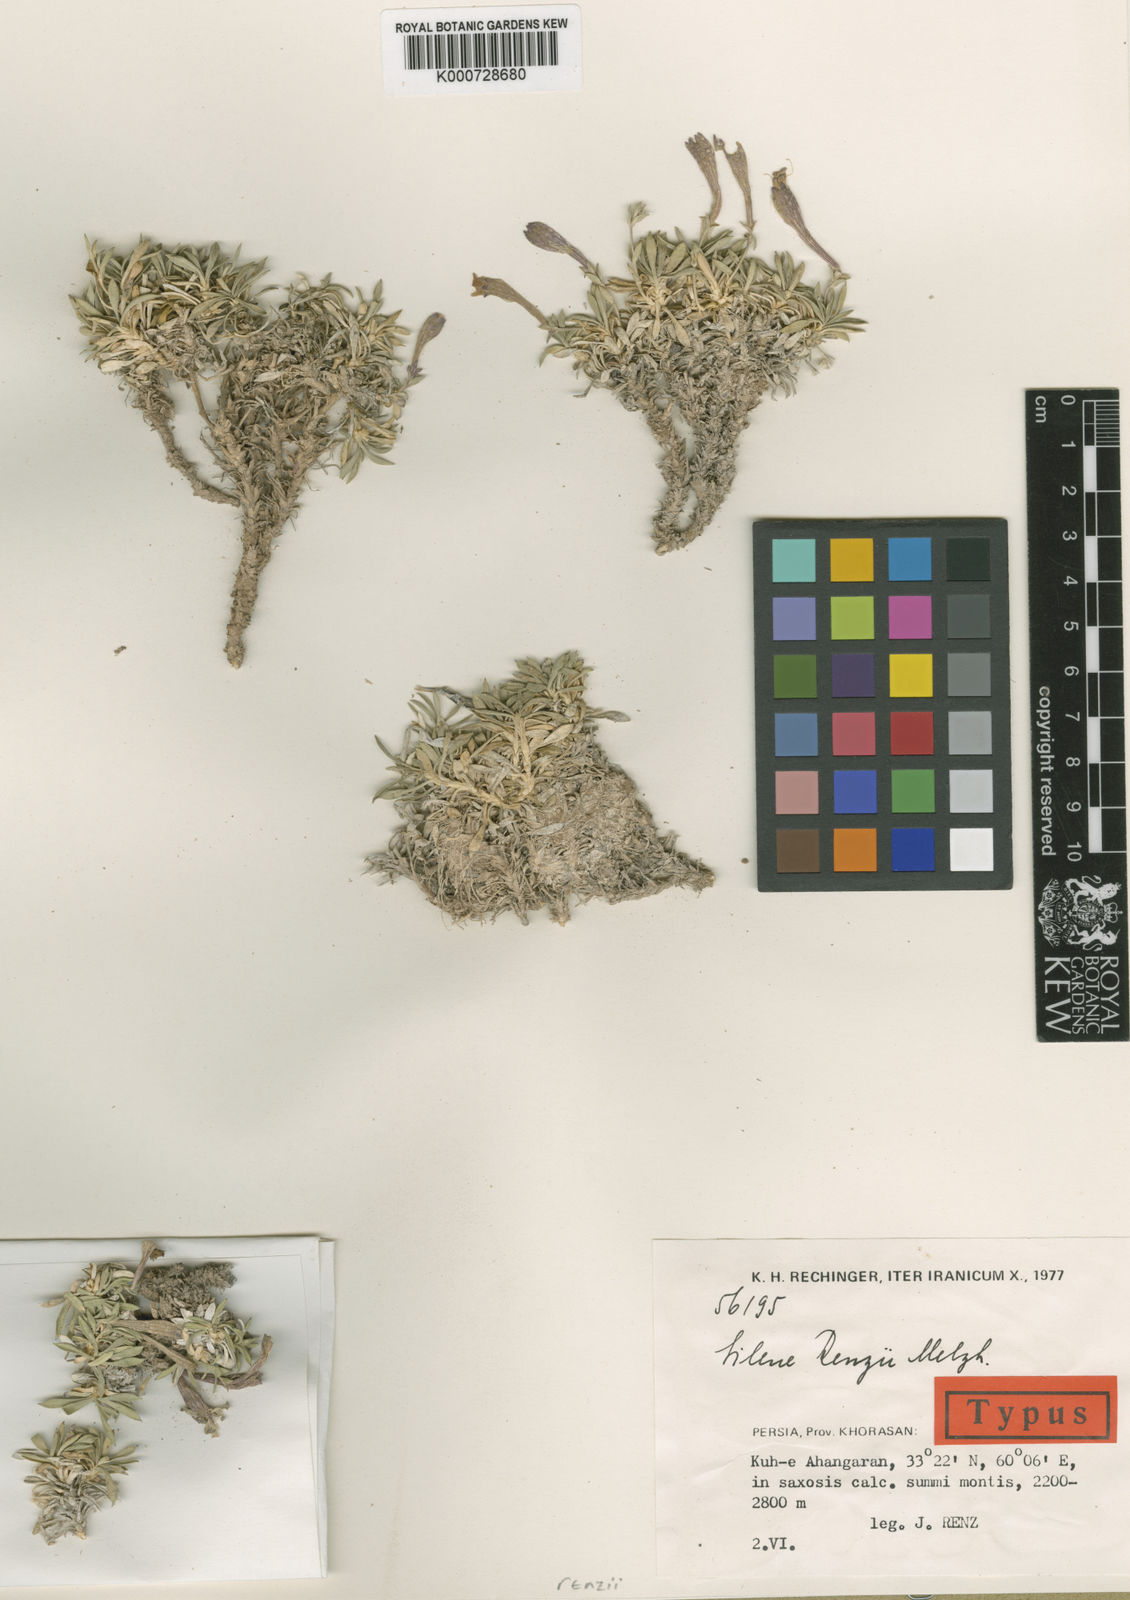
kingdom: Plantae
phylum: Tracheophyta
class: Magnoliopsida
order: Caryophyllales
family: Caryophyllaceae
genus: Silene
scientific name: Silene renzii
